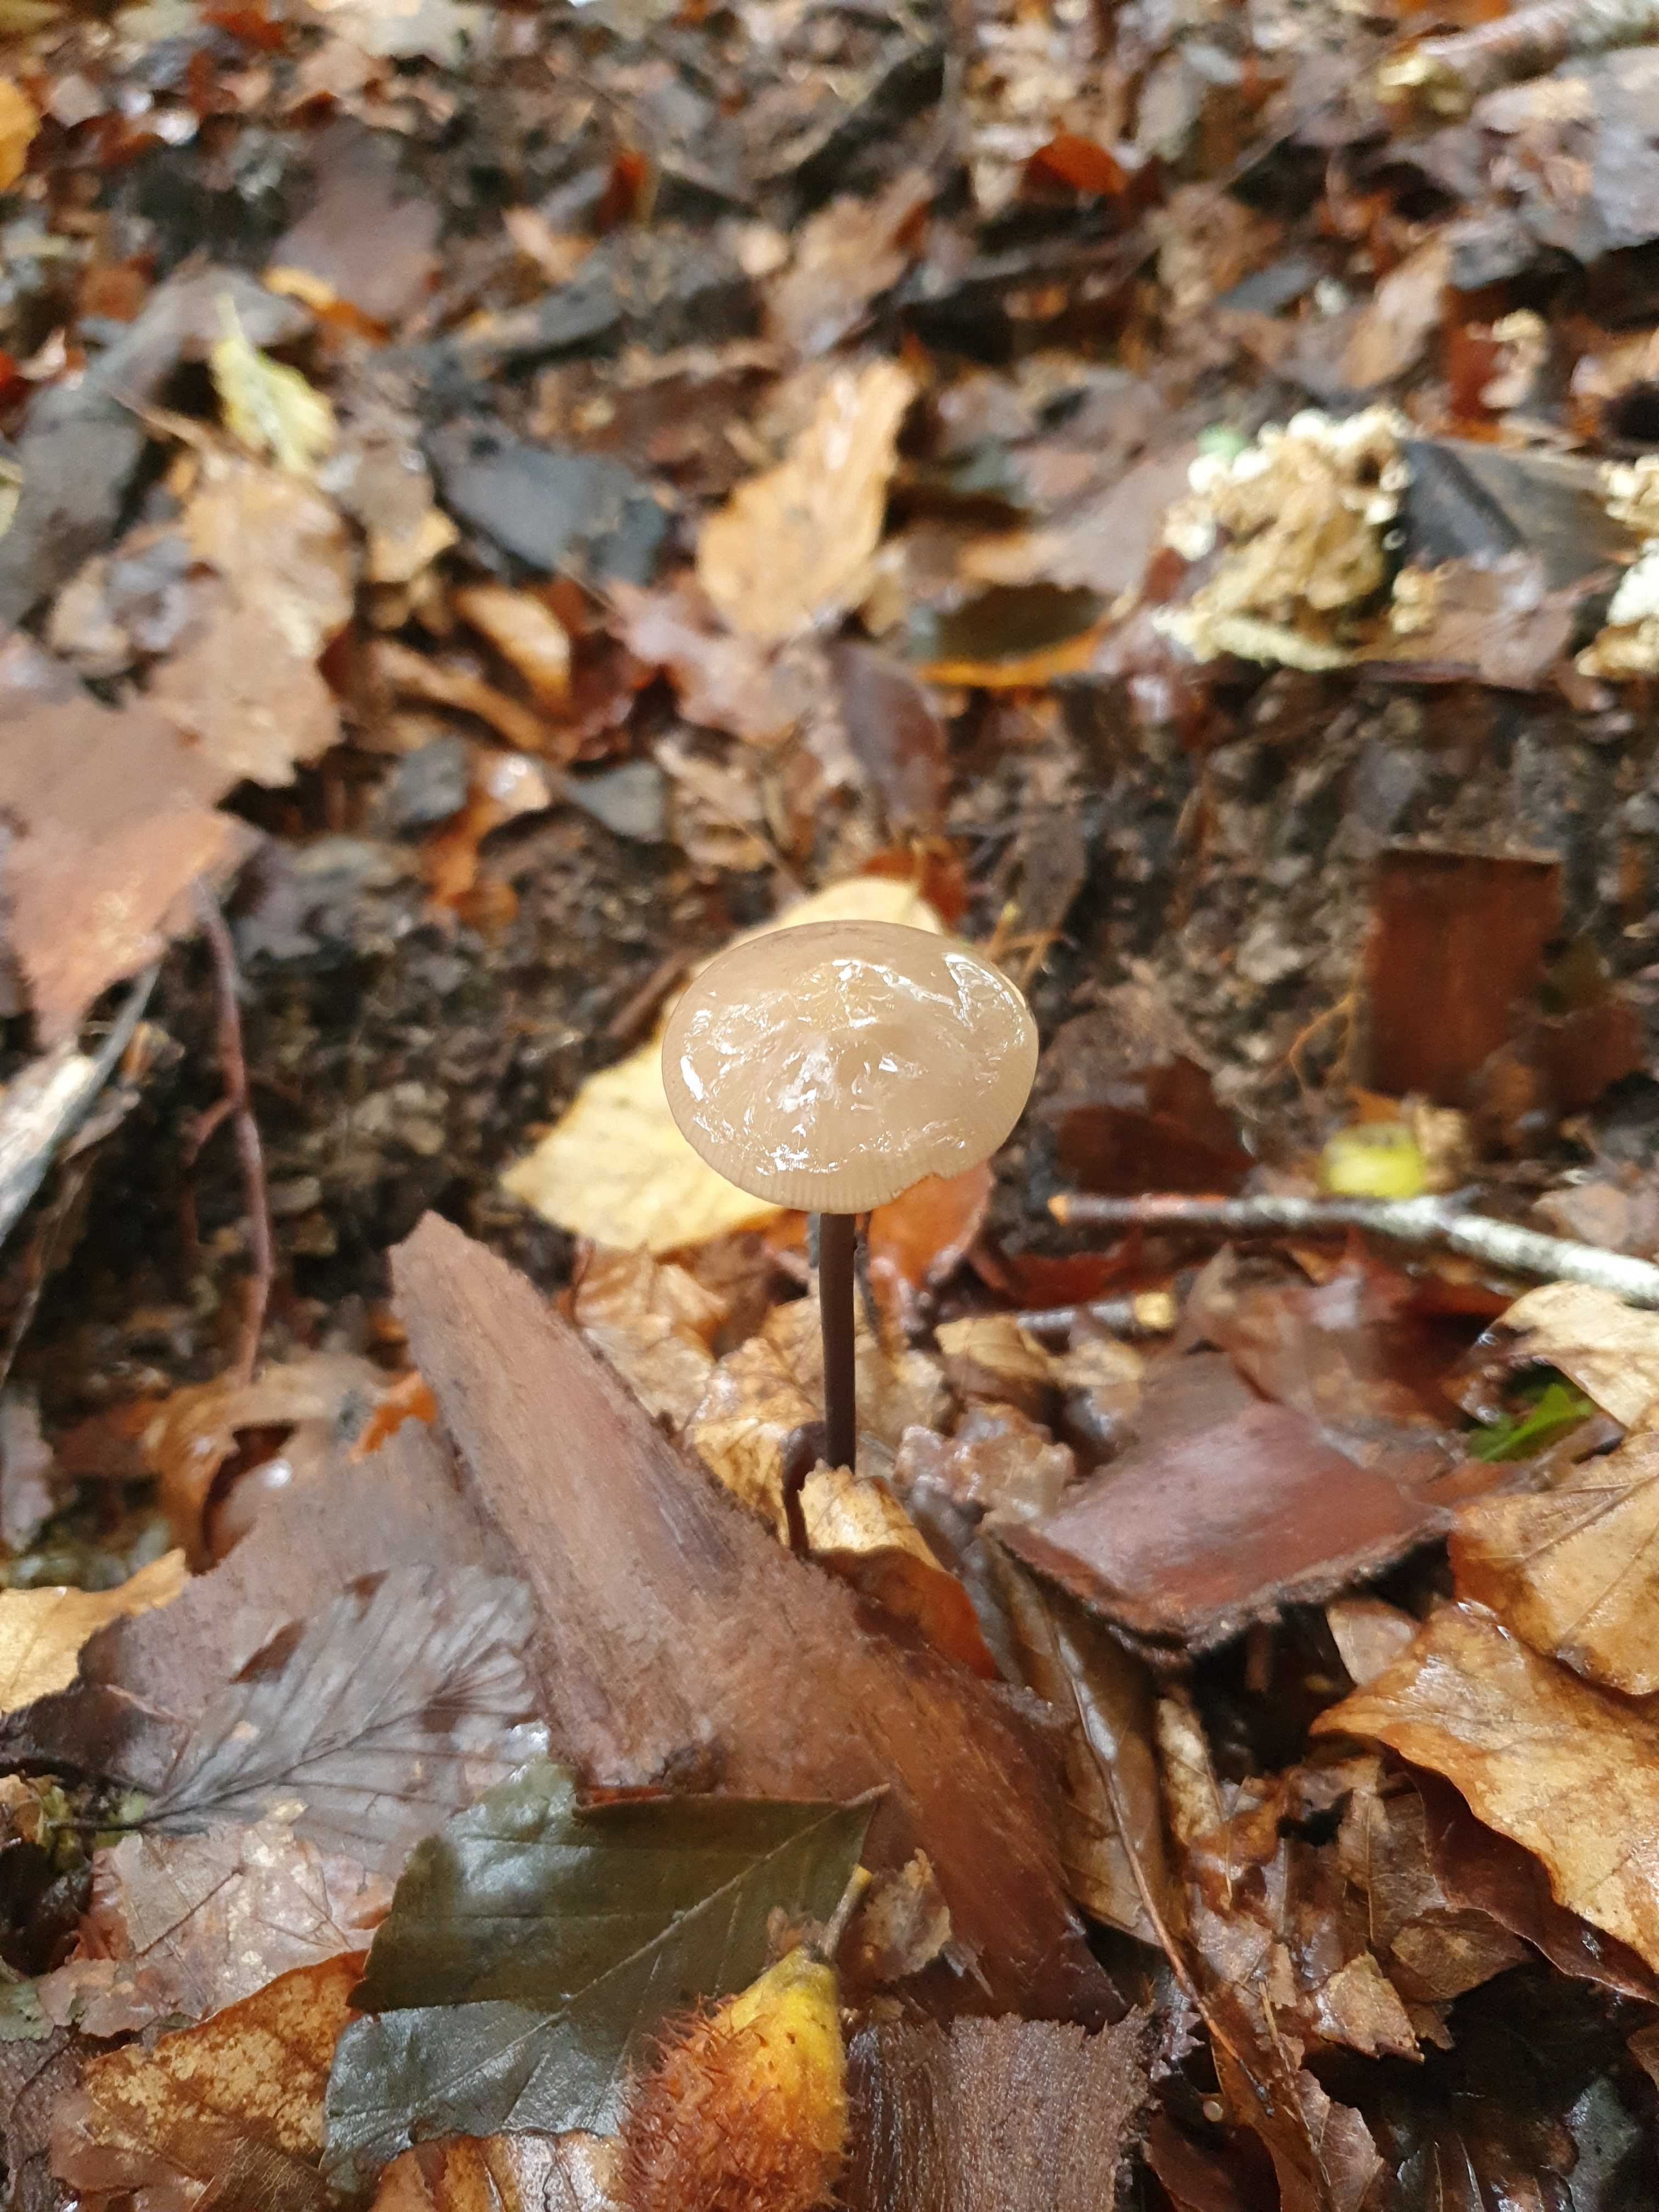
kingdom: Fungi
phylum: Basidiomycota
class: Agaricomycetes
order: Agaricales
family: Omphalotaceae
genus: Mycetinis
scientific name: Mycetinis alliaceus
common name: stor løghat
